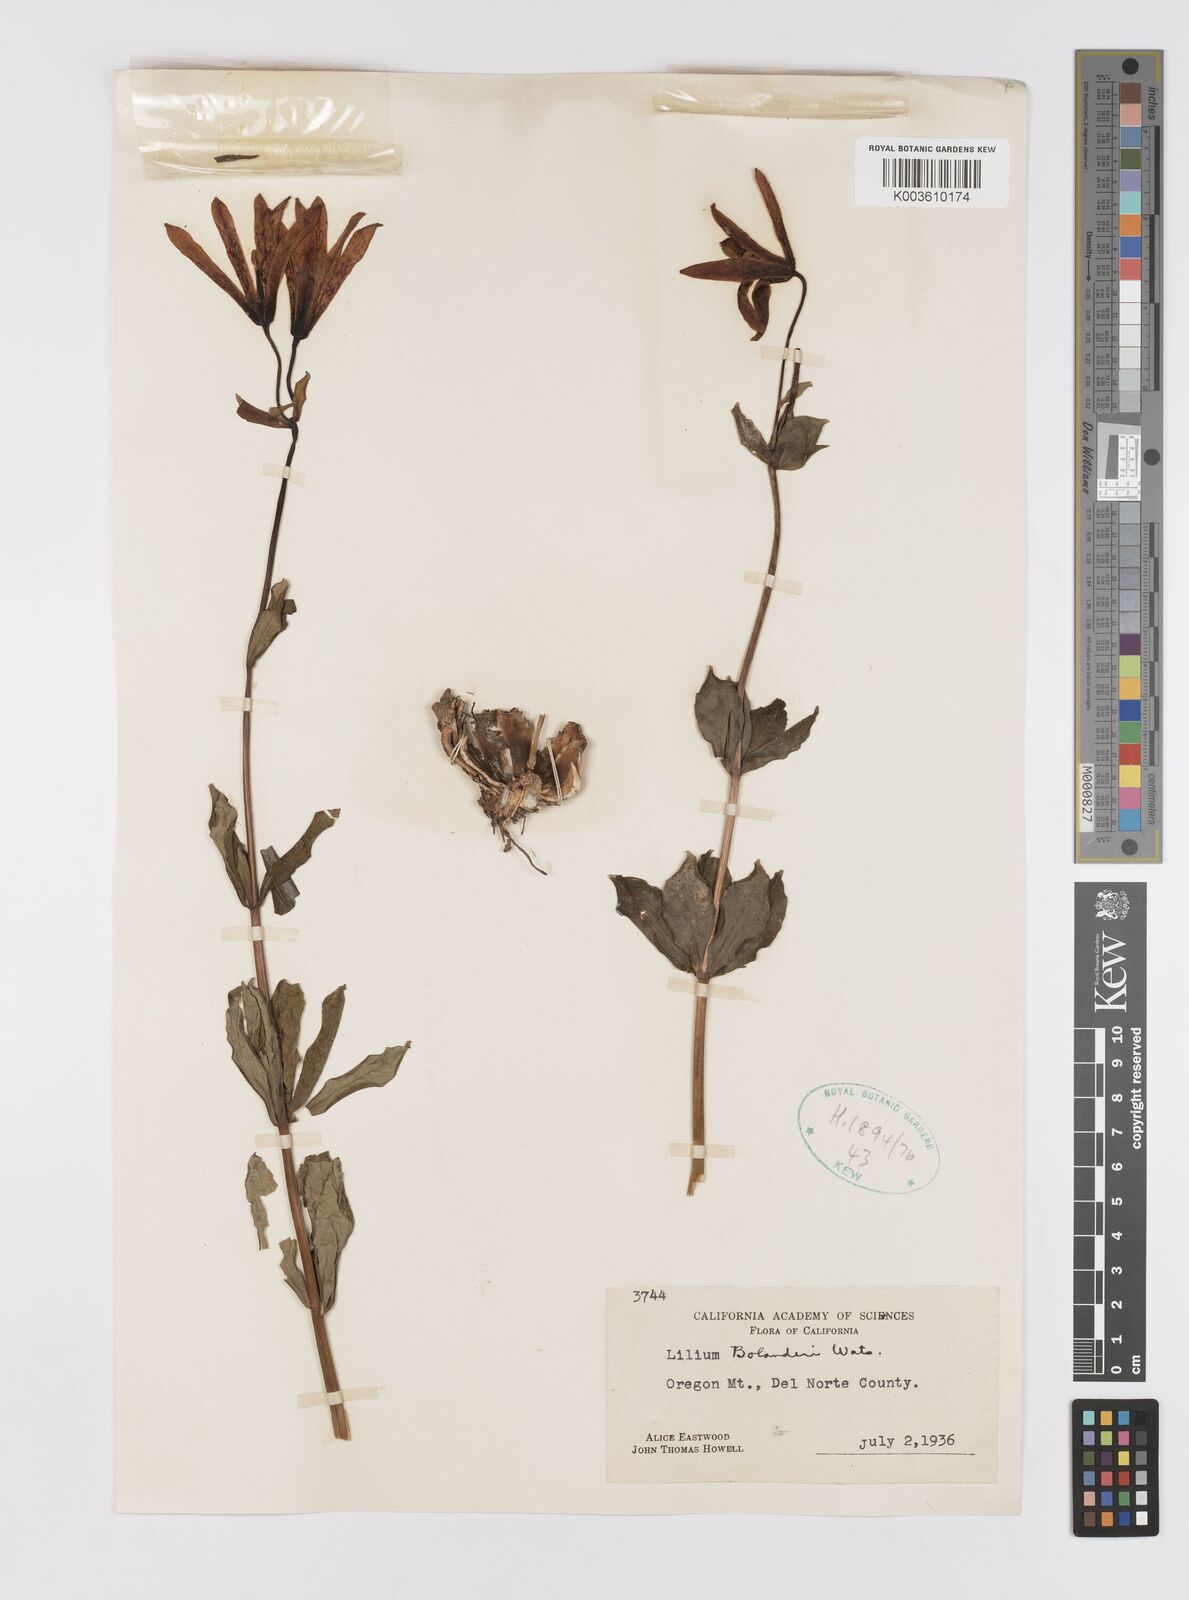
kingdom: Plantae
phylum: Tracheophyta
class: Liliopsida
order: Liliales
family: Liliaceae
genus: Lilium
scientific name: Lilium bolanderi
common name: Bolander's lily
